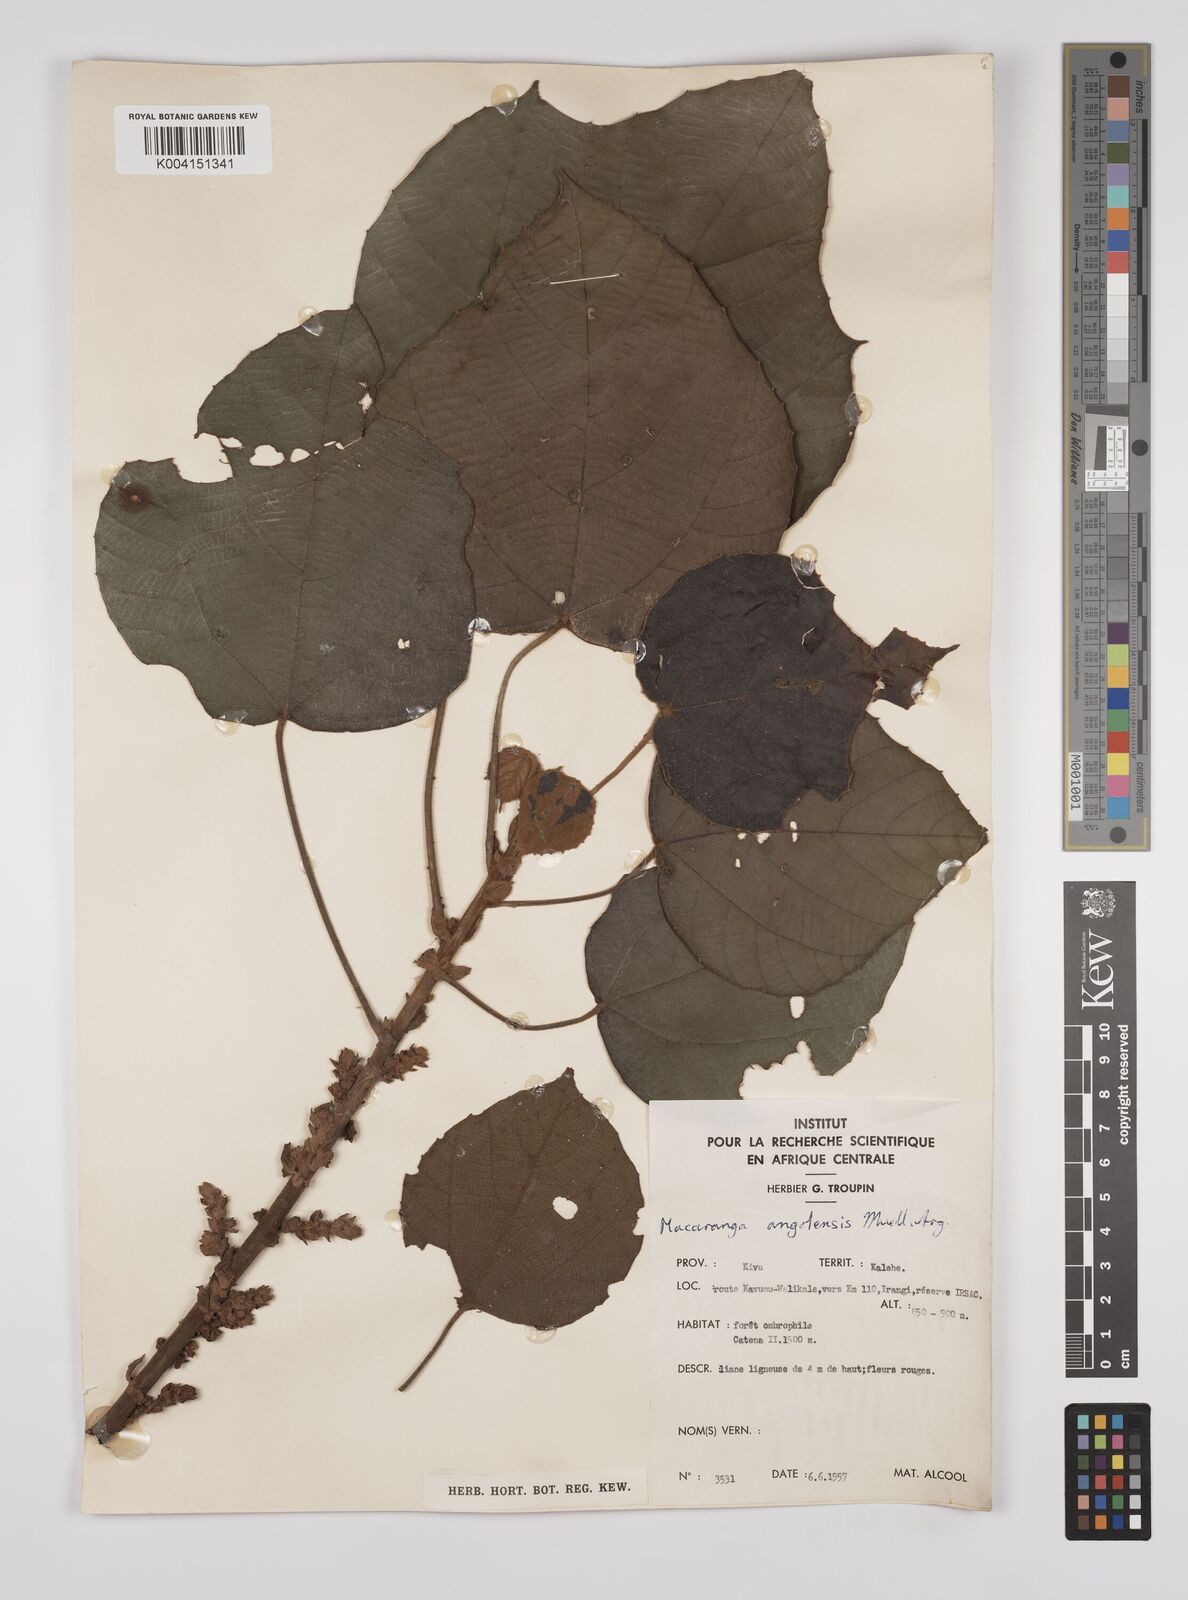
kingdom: Plantae
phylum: Tracheophyta
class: Magnoliopsida
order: Malpighiales
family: Euphorbiaceae
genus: Macaranga
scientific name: Macaranga angolensis
